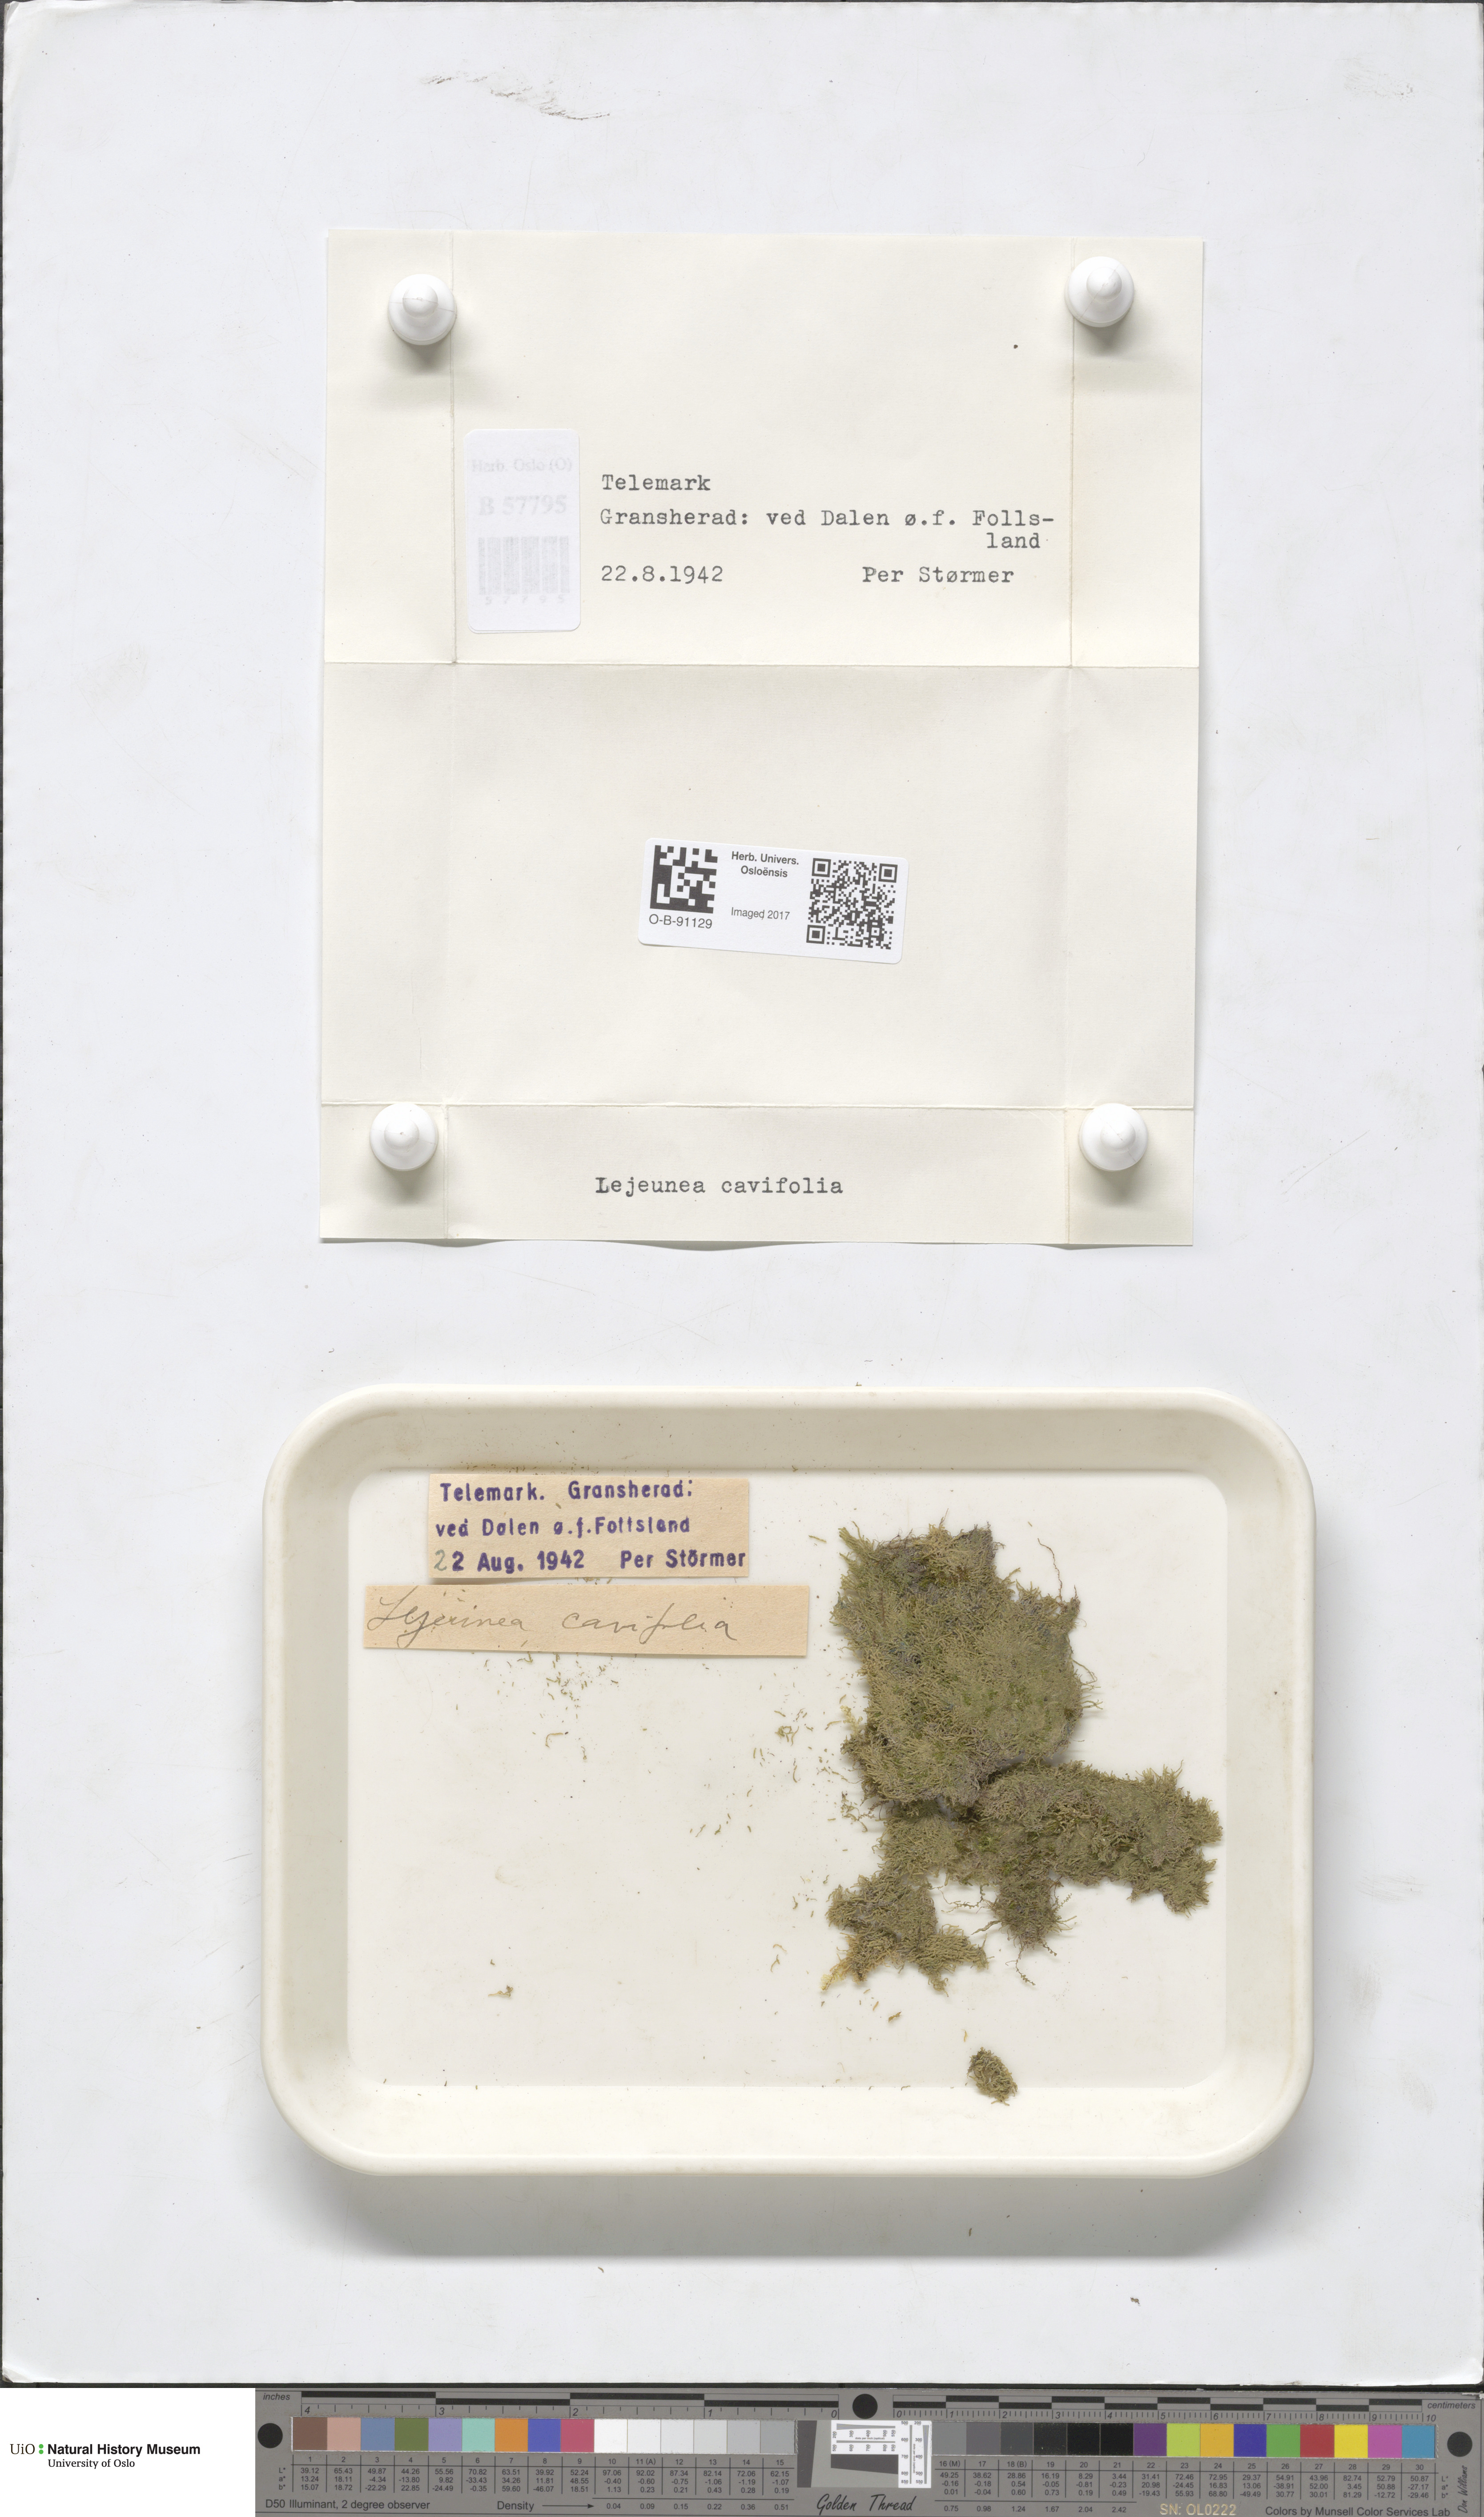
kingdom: Plantae
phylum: Marchantiophyta
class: Jungermanniopsida
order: Porellales
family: Lejeuneaceae
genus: Lejeunea
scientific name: Lejeunea cavifolia
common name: Least pouncewort
